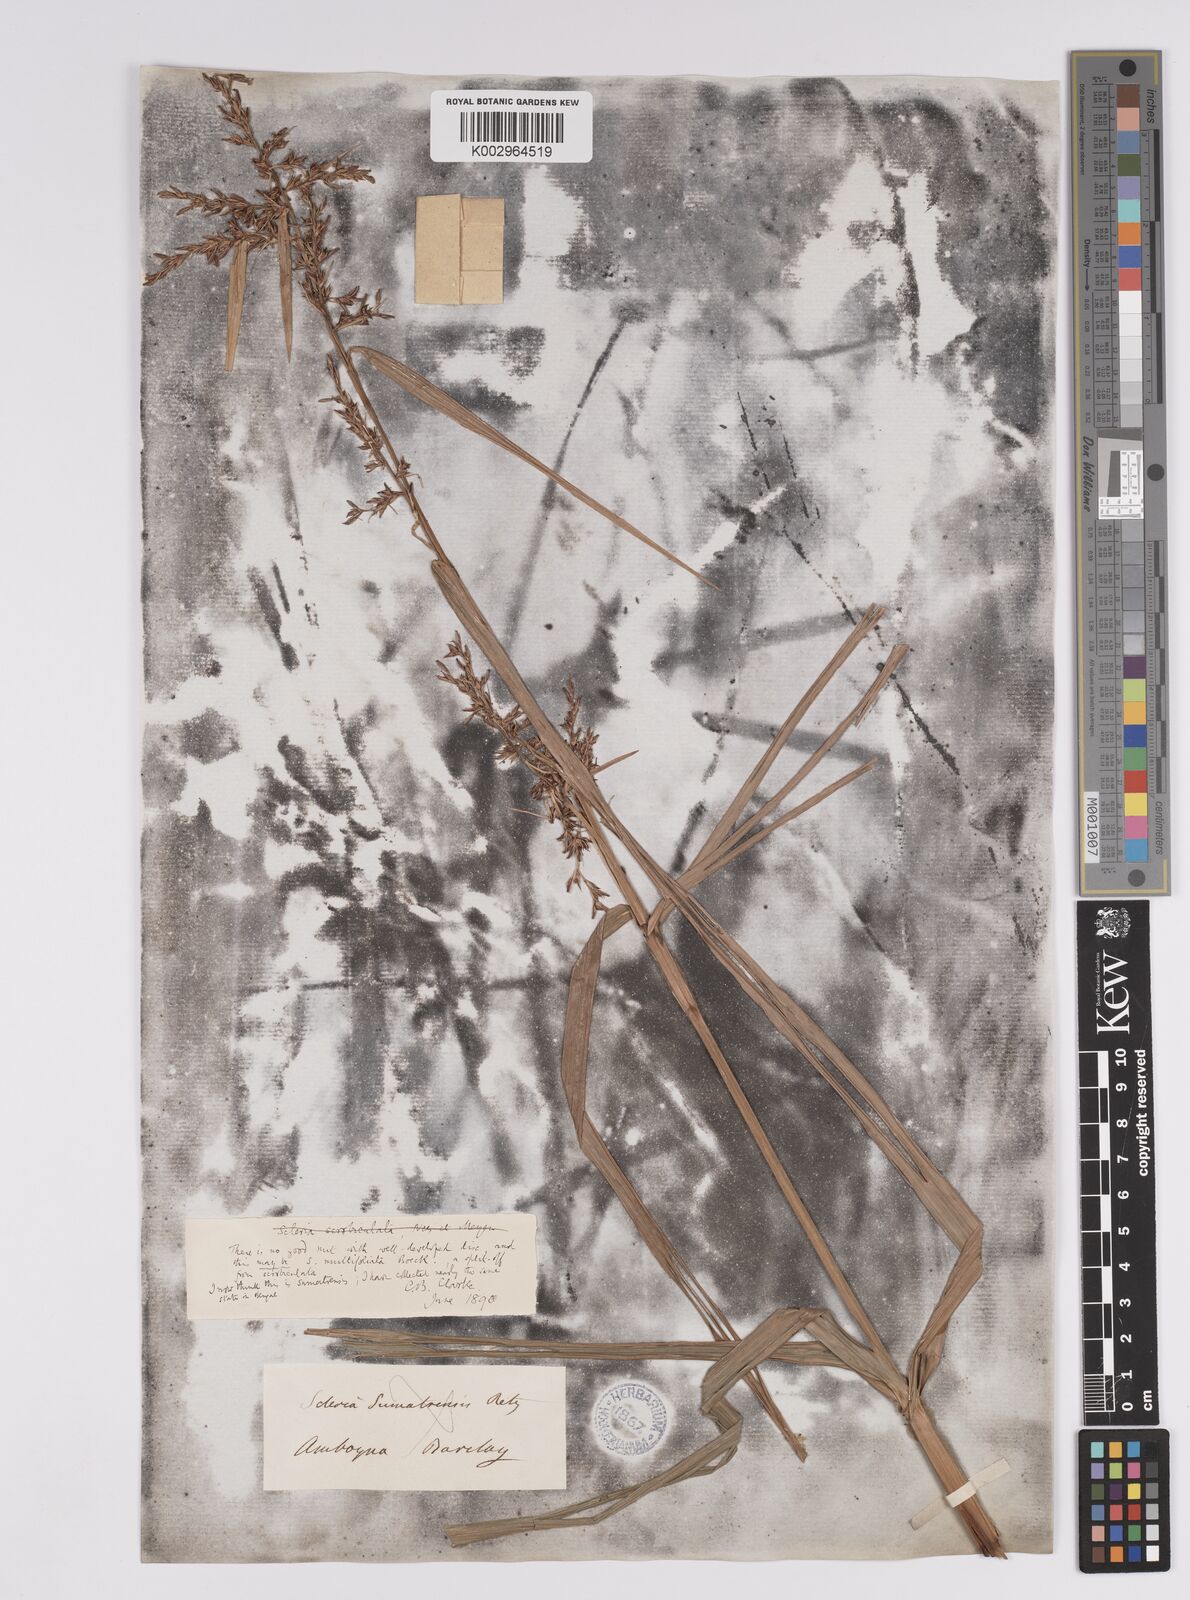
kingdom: Plantae
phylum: Tracheophyta
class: Liliopsida
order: Poales
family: Cyperaceae
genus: Scleria
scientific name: Scleria sumatrensis
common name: Sumatran scleria
